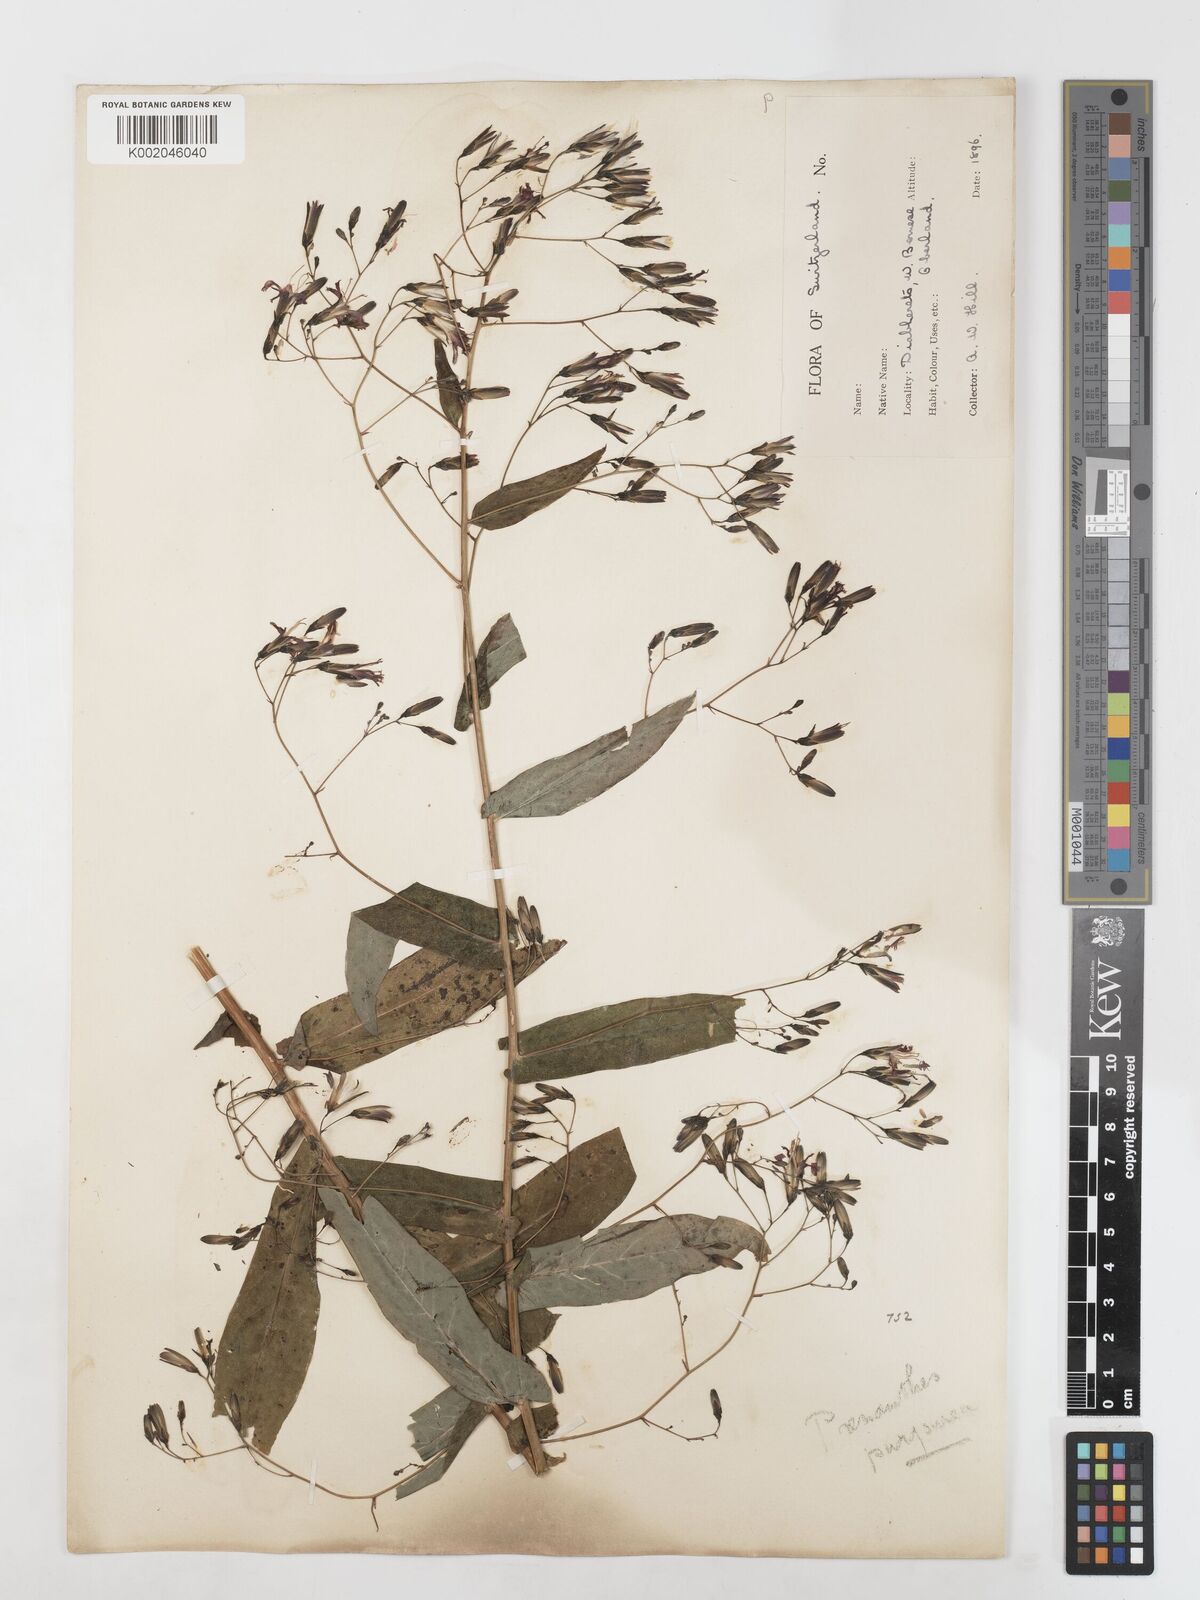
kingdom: Plantae
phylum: Tracheophyta
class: Magnoliopsida
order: Asterales
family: Asteraceae
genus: Prenanthes
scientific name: Prenanthes purpurea
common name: Purple lettuce
